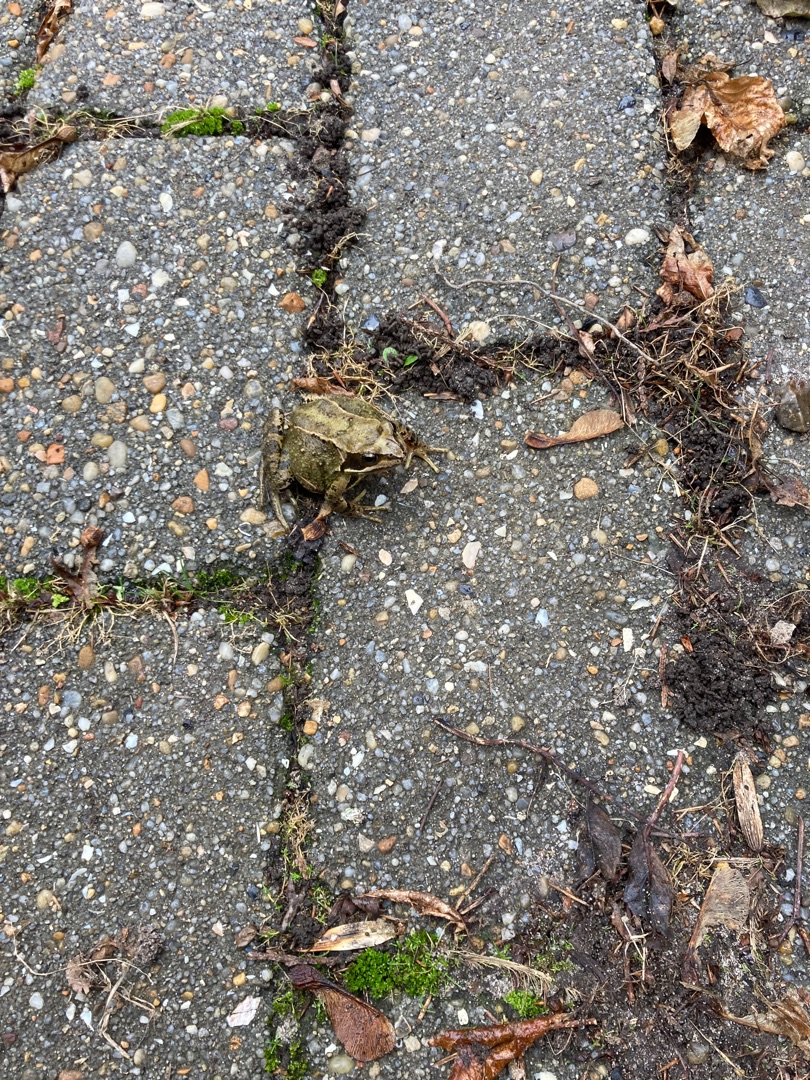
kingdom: Animalia
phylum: Chordata
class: Amphibia
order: Anura
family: Ranidae
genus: Rana
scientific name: Rana temporaria
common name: Butsnudet frø
